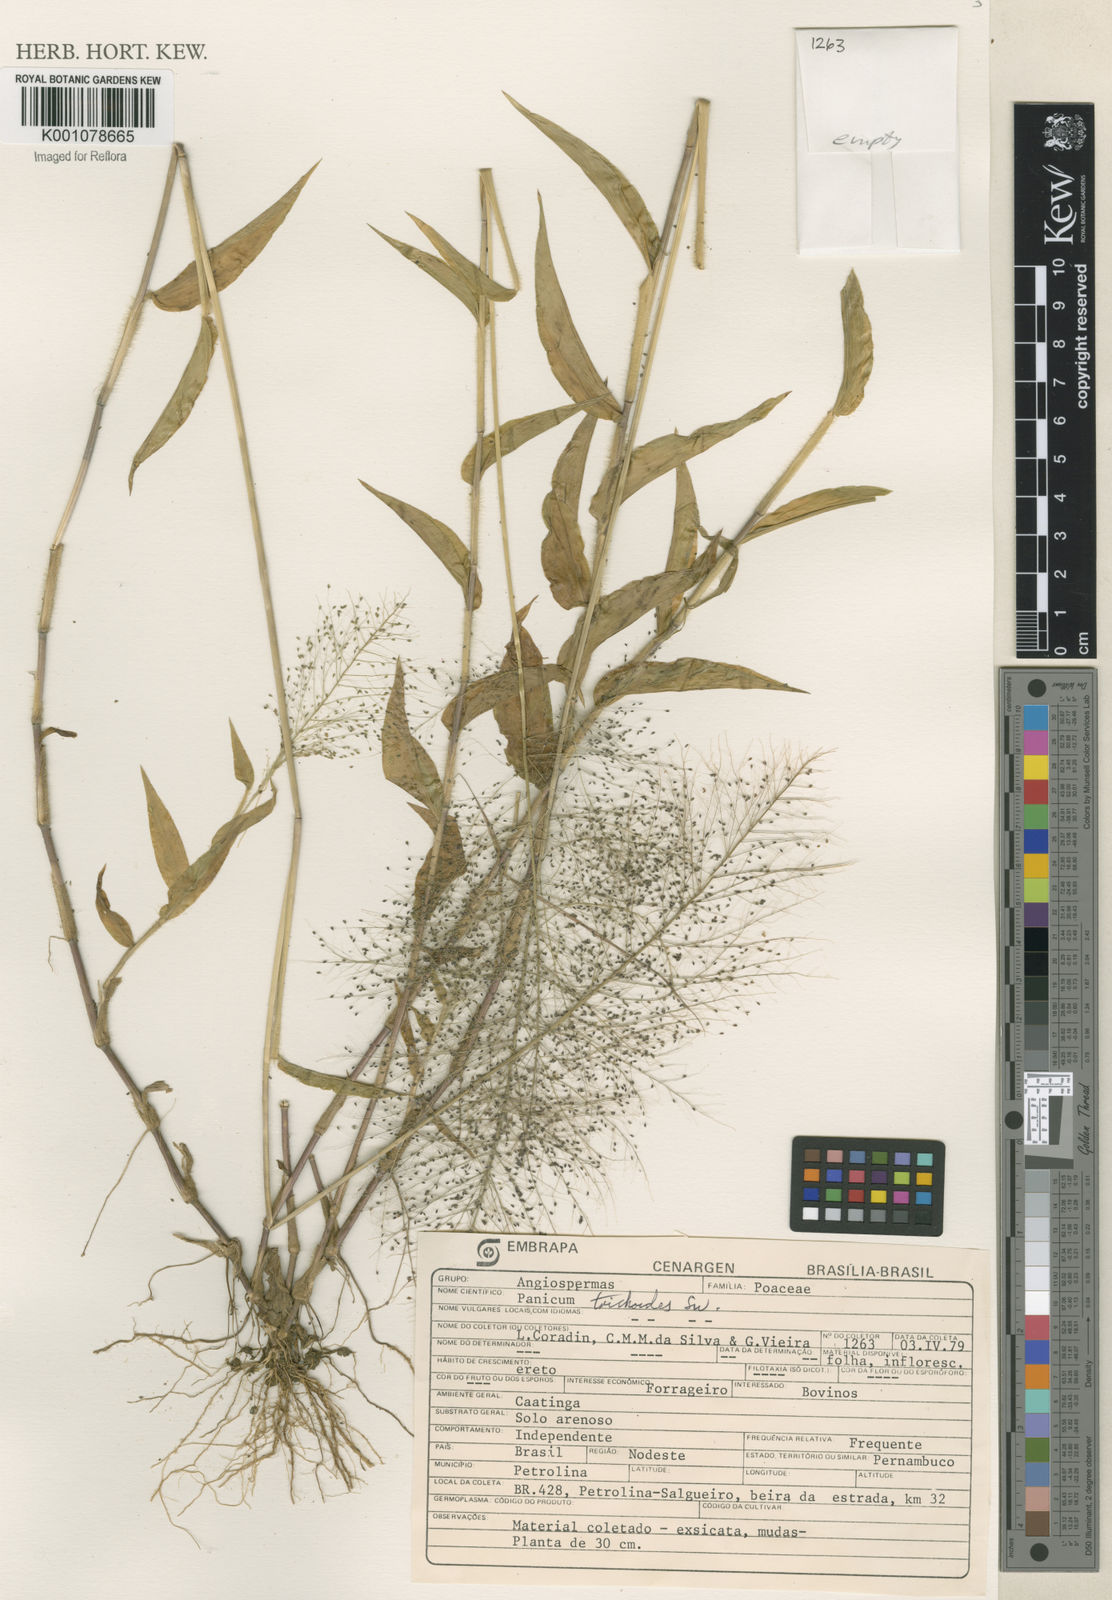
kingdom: Plantae
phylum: Tracheophyta
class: Liliopsida
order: Poales
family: Poaceae
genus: Panicum
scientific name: Panicum trichoides
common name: Tickle grass
